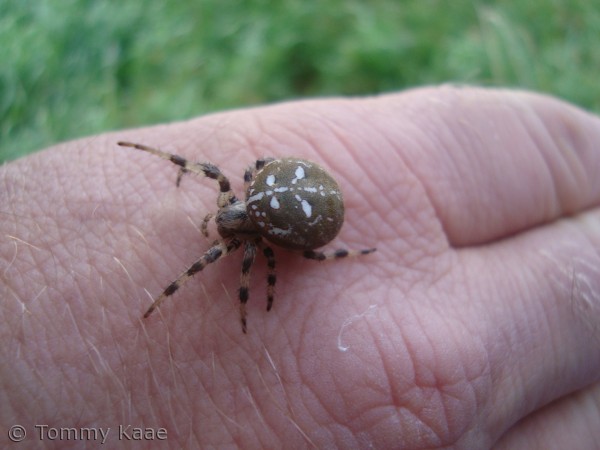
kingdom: Animalia
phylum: Arthropoda
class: Arachnida
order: Araneae
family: Araneidae
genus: Araneus
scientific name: Araneus quadratus
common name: Kvadratedderkop
